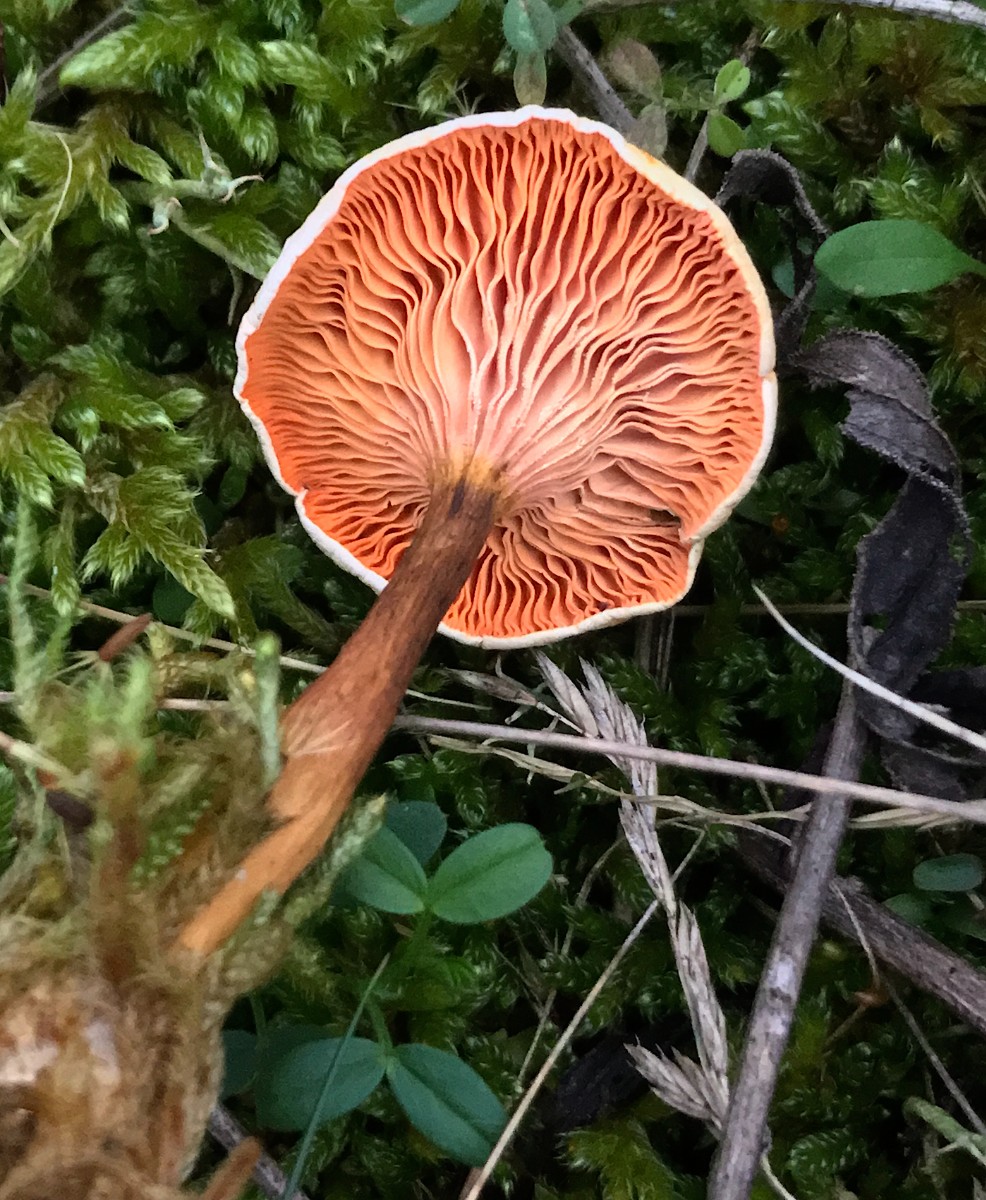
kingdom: Fungi
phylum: Basidiomycota
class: Agaricomycetes
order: Boletales
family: Hygrophoropsidaceae
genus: Hygrophoropsis
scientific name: Hygrophoropsis aurantiaca
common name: almindelig orangekantarel
